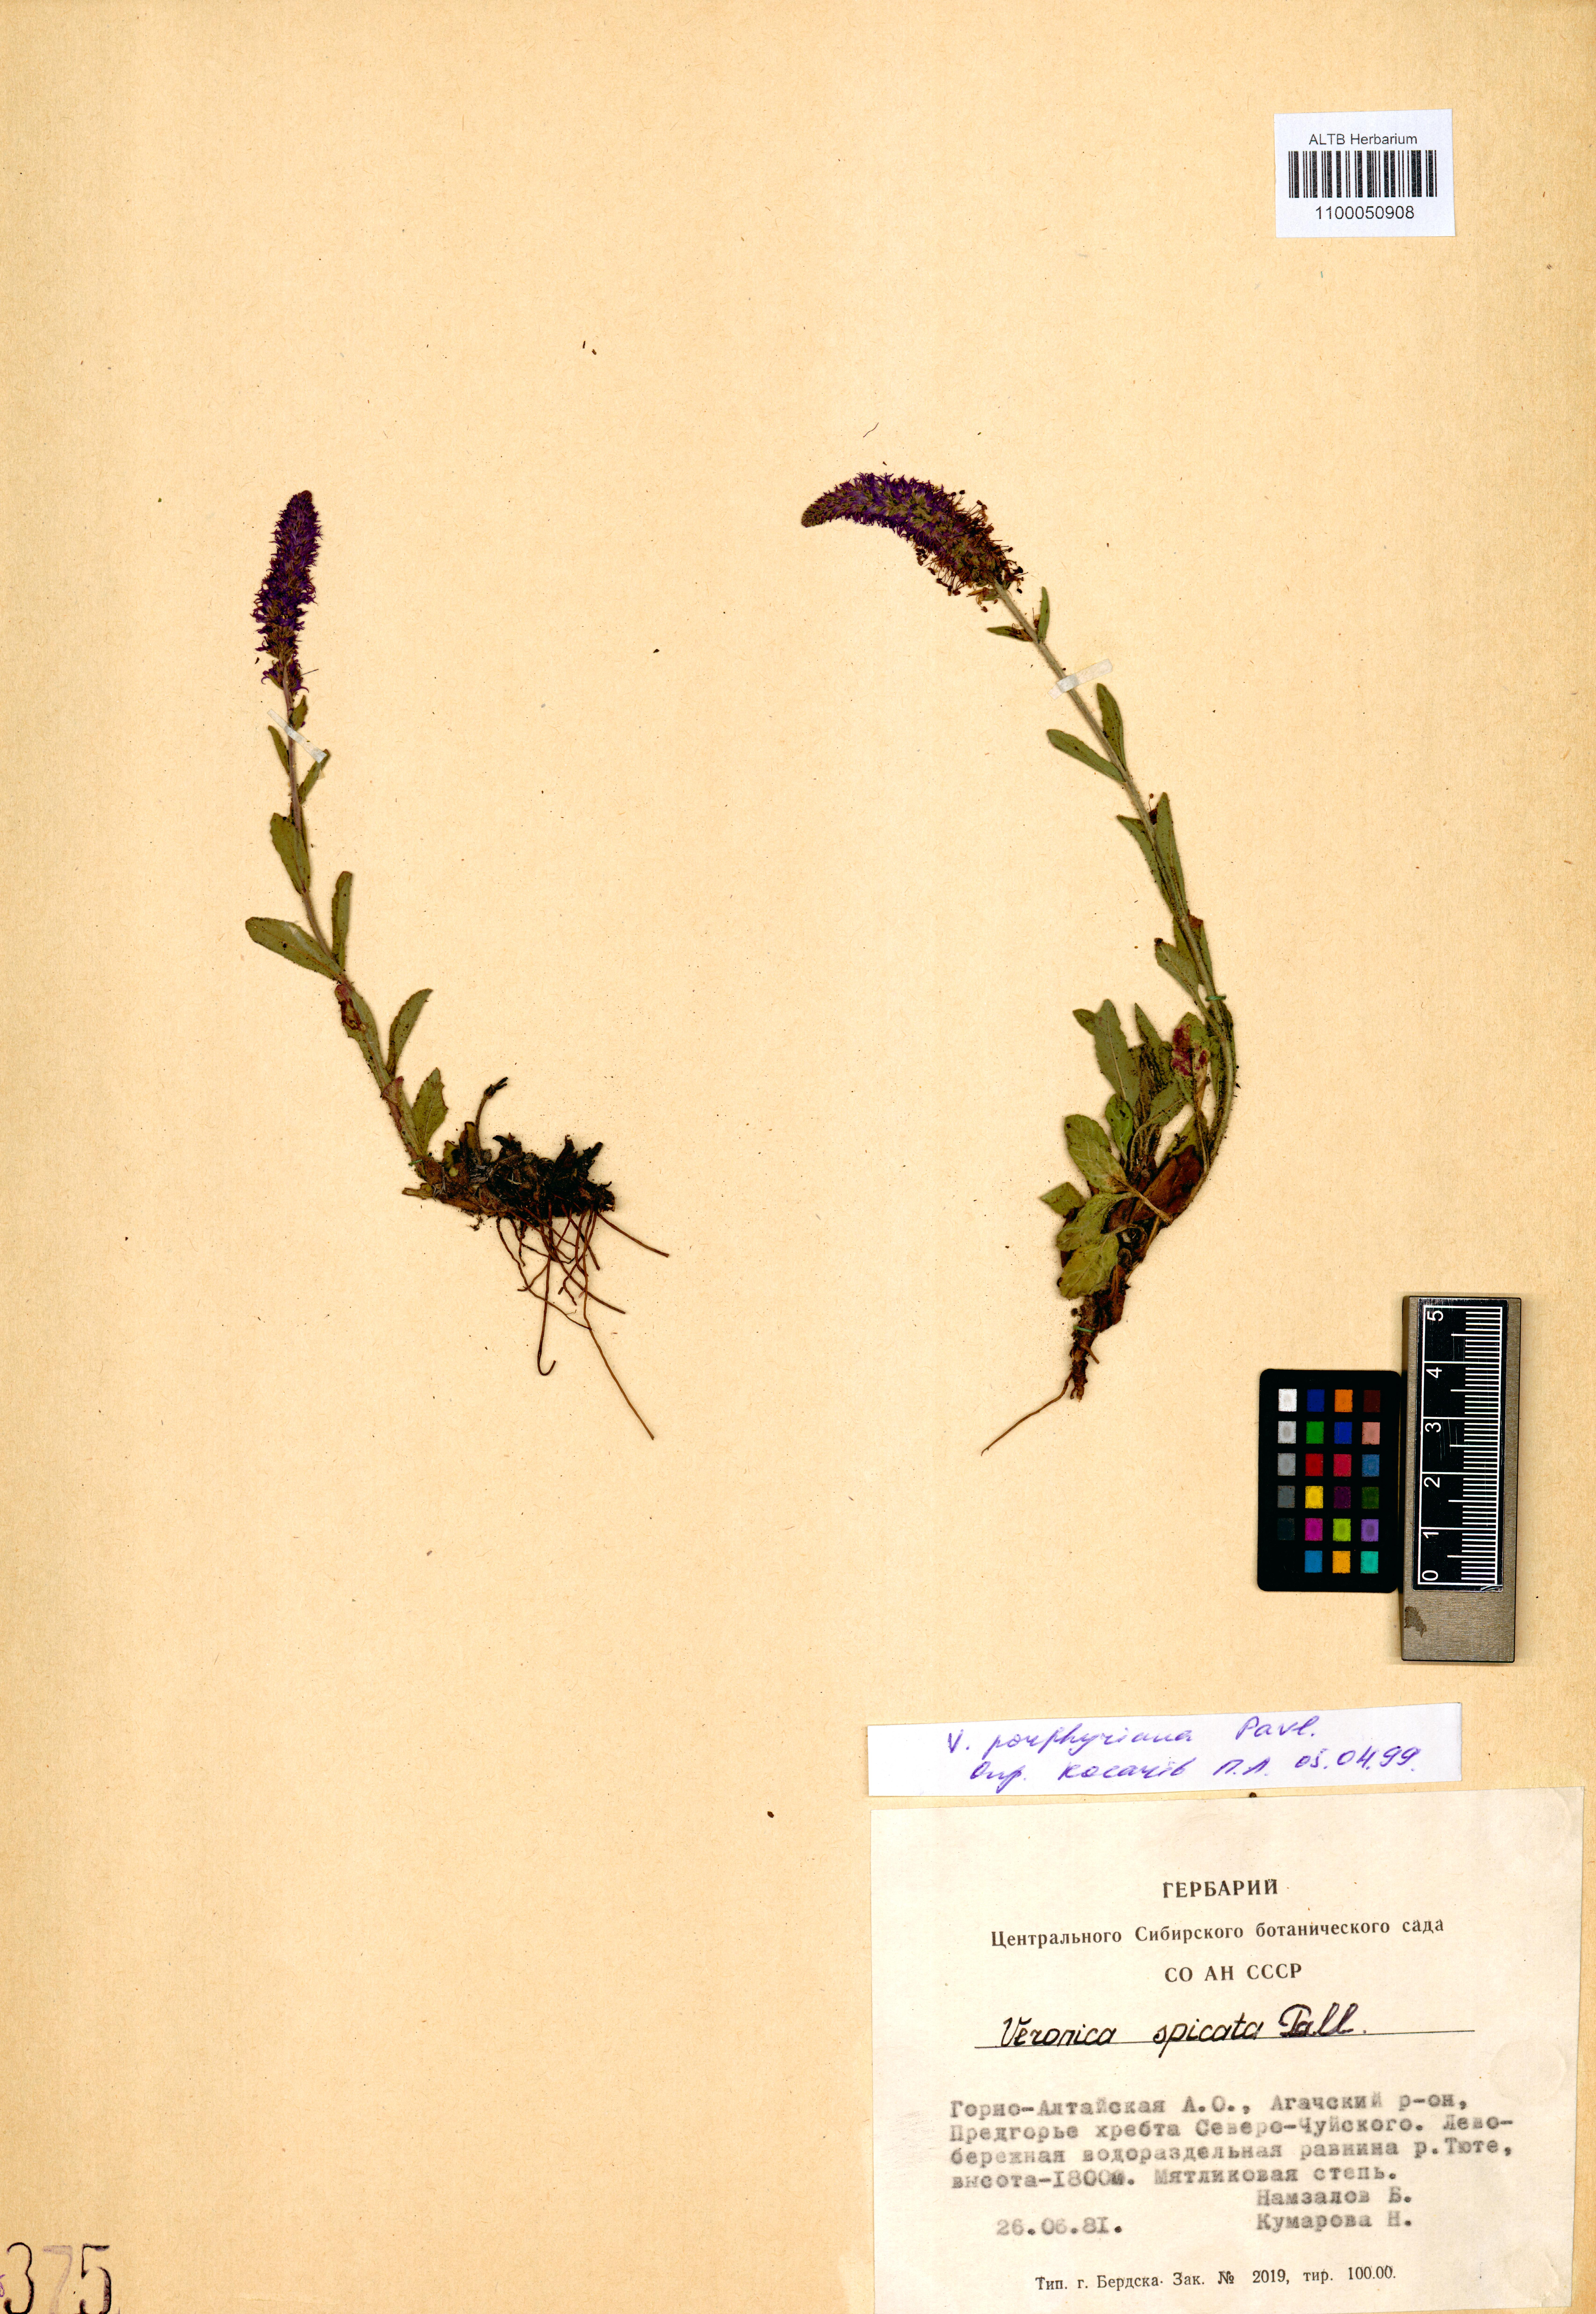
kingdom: Plantae
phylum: Tracheophyta
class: Magnoliopsida
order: Lamiales
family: Plantaginaceae
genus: Veronica
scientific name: Veronica porphyriana
